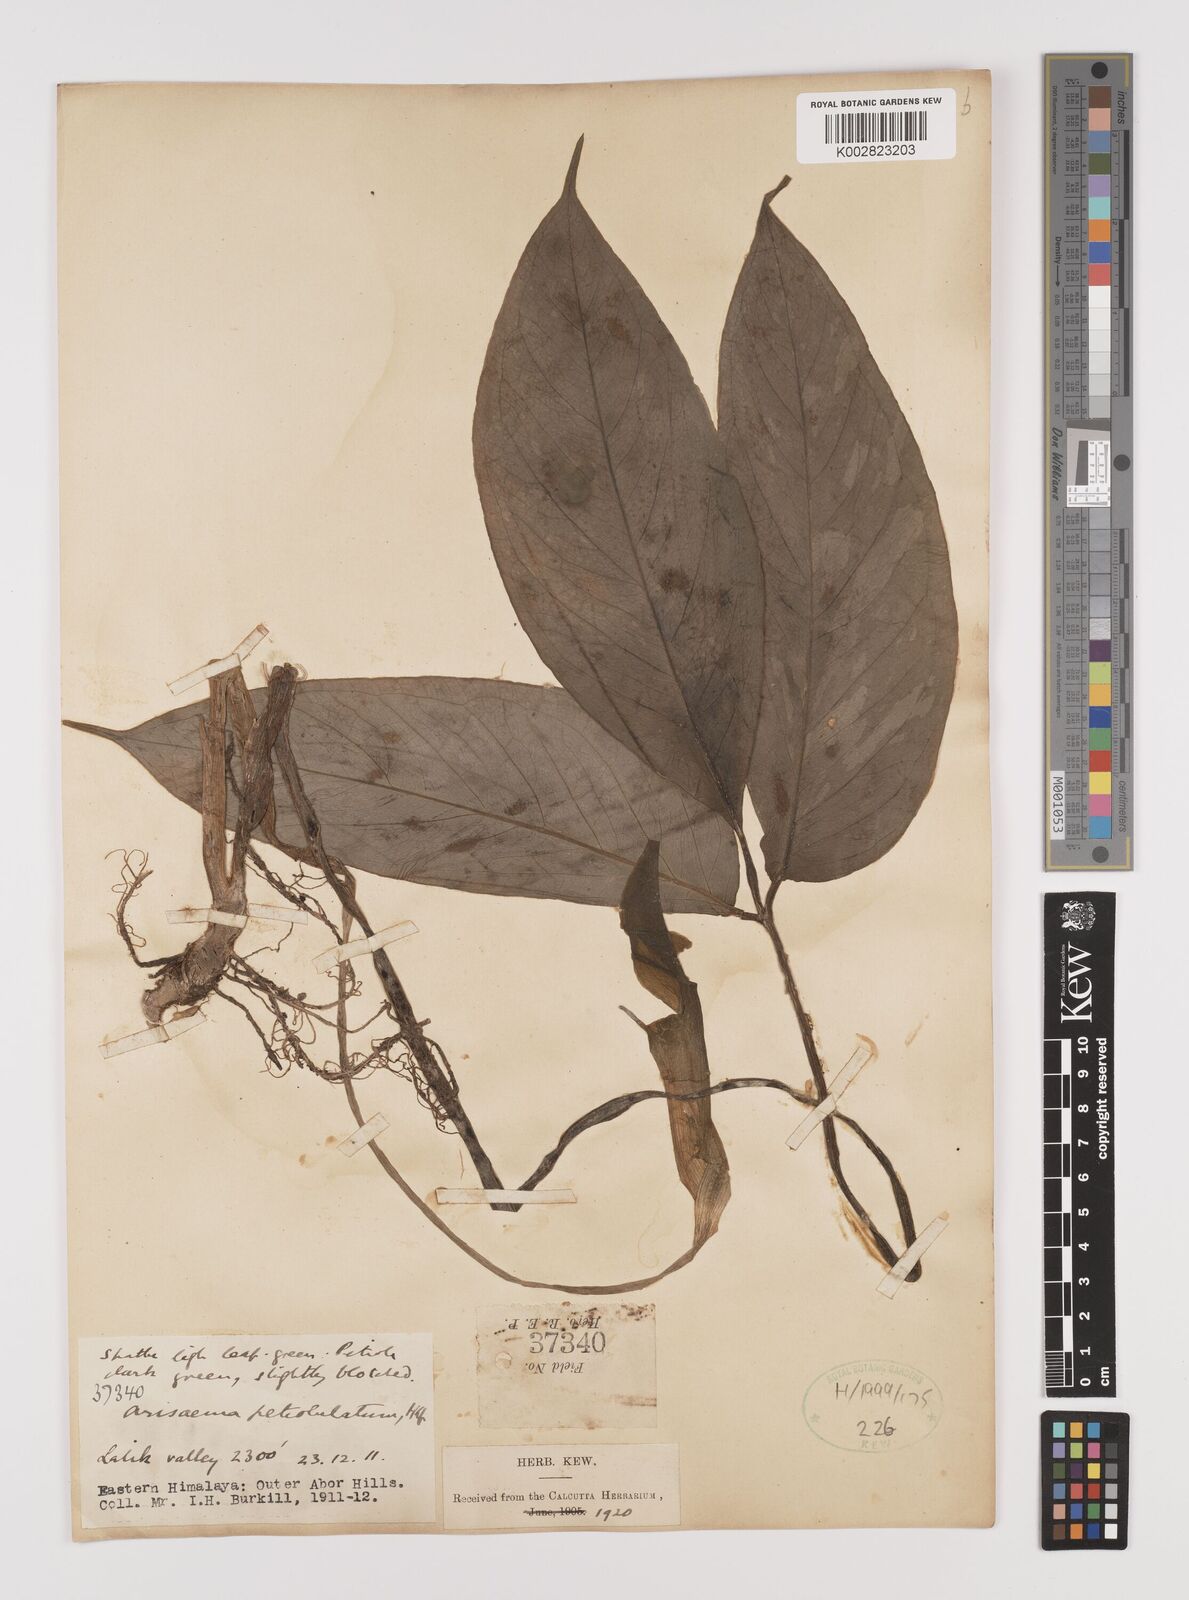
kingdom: Plantae
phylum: Tracheophyta
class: Liliopsida
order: Alismatales
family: Araceae
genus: Arisaema
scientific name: Arisaema petiolulatum
